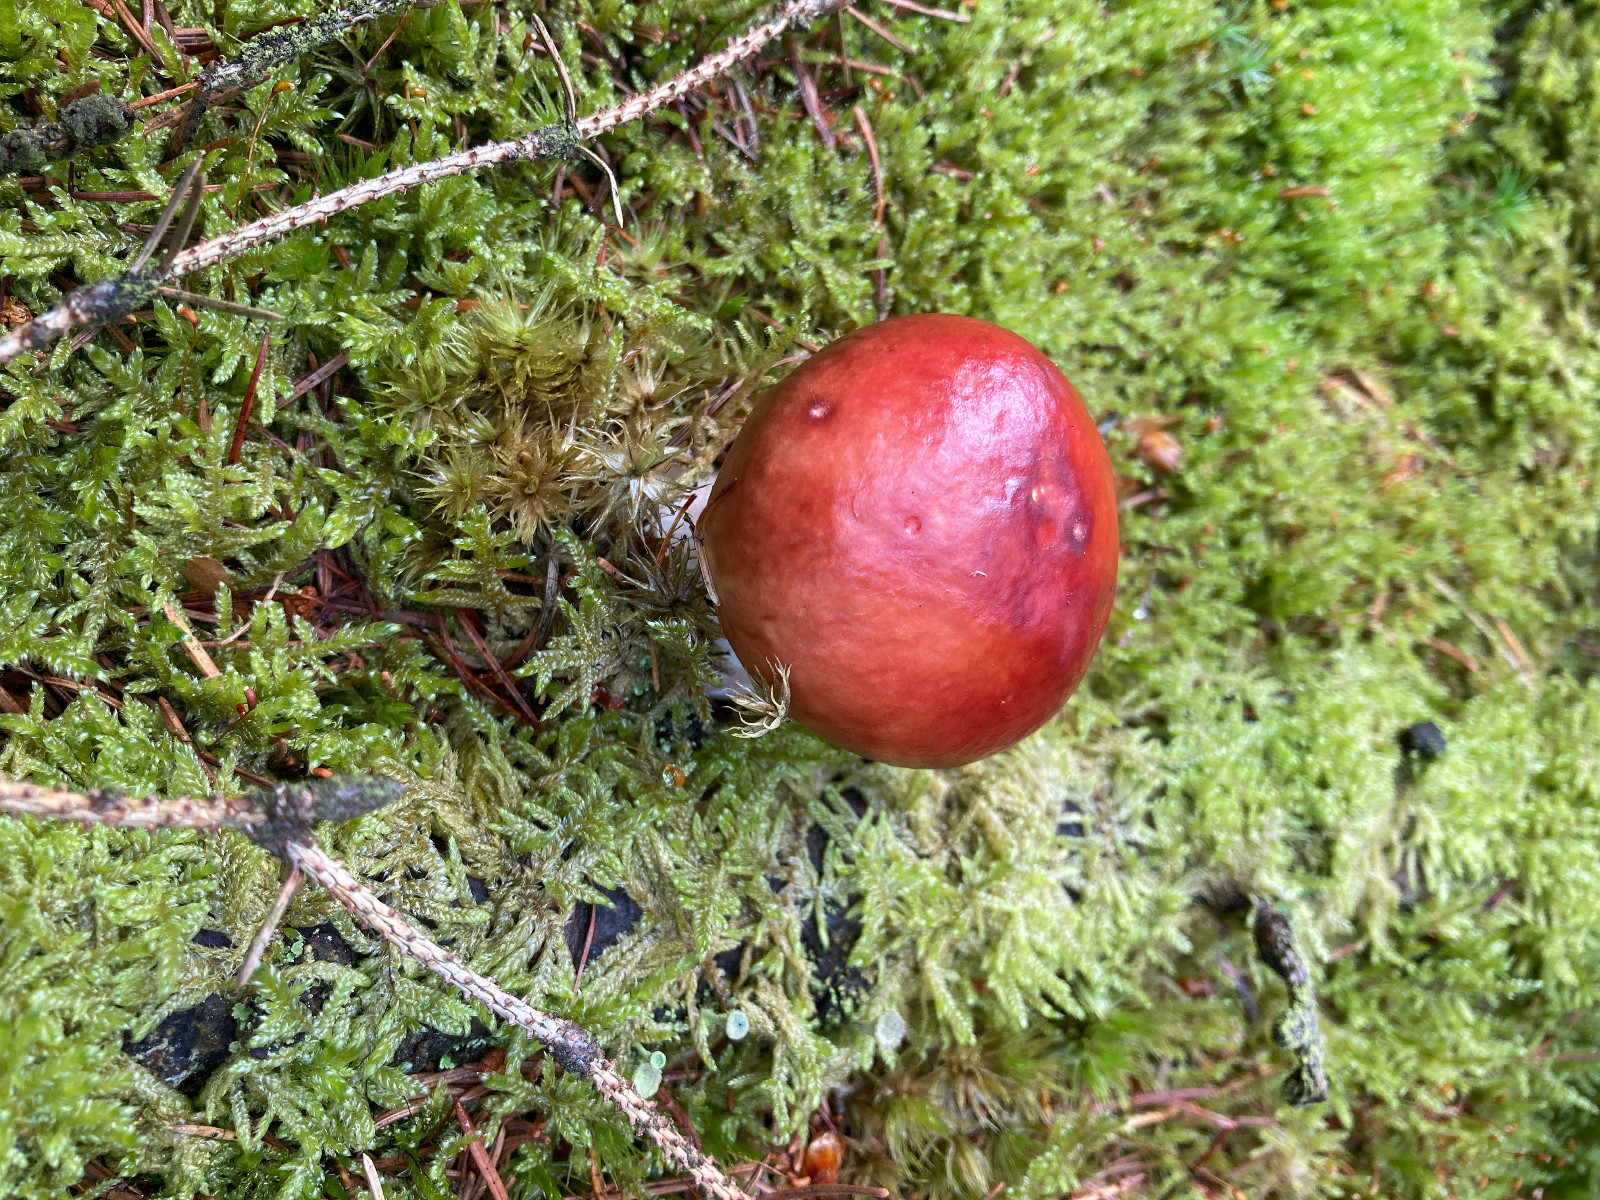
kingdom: Fungi
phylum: Basidiomycota
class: Agaricomycetes
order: Russulales
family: Russulaceae
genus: Russula
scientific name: Russula paludosa
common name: prægtig skørhat
